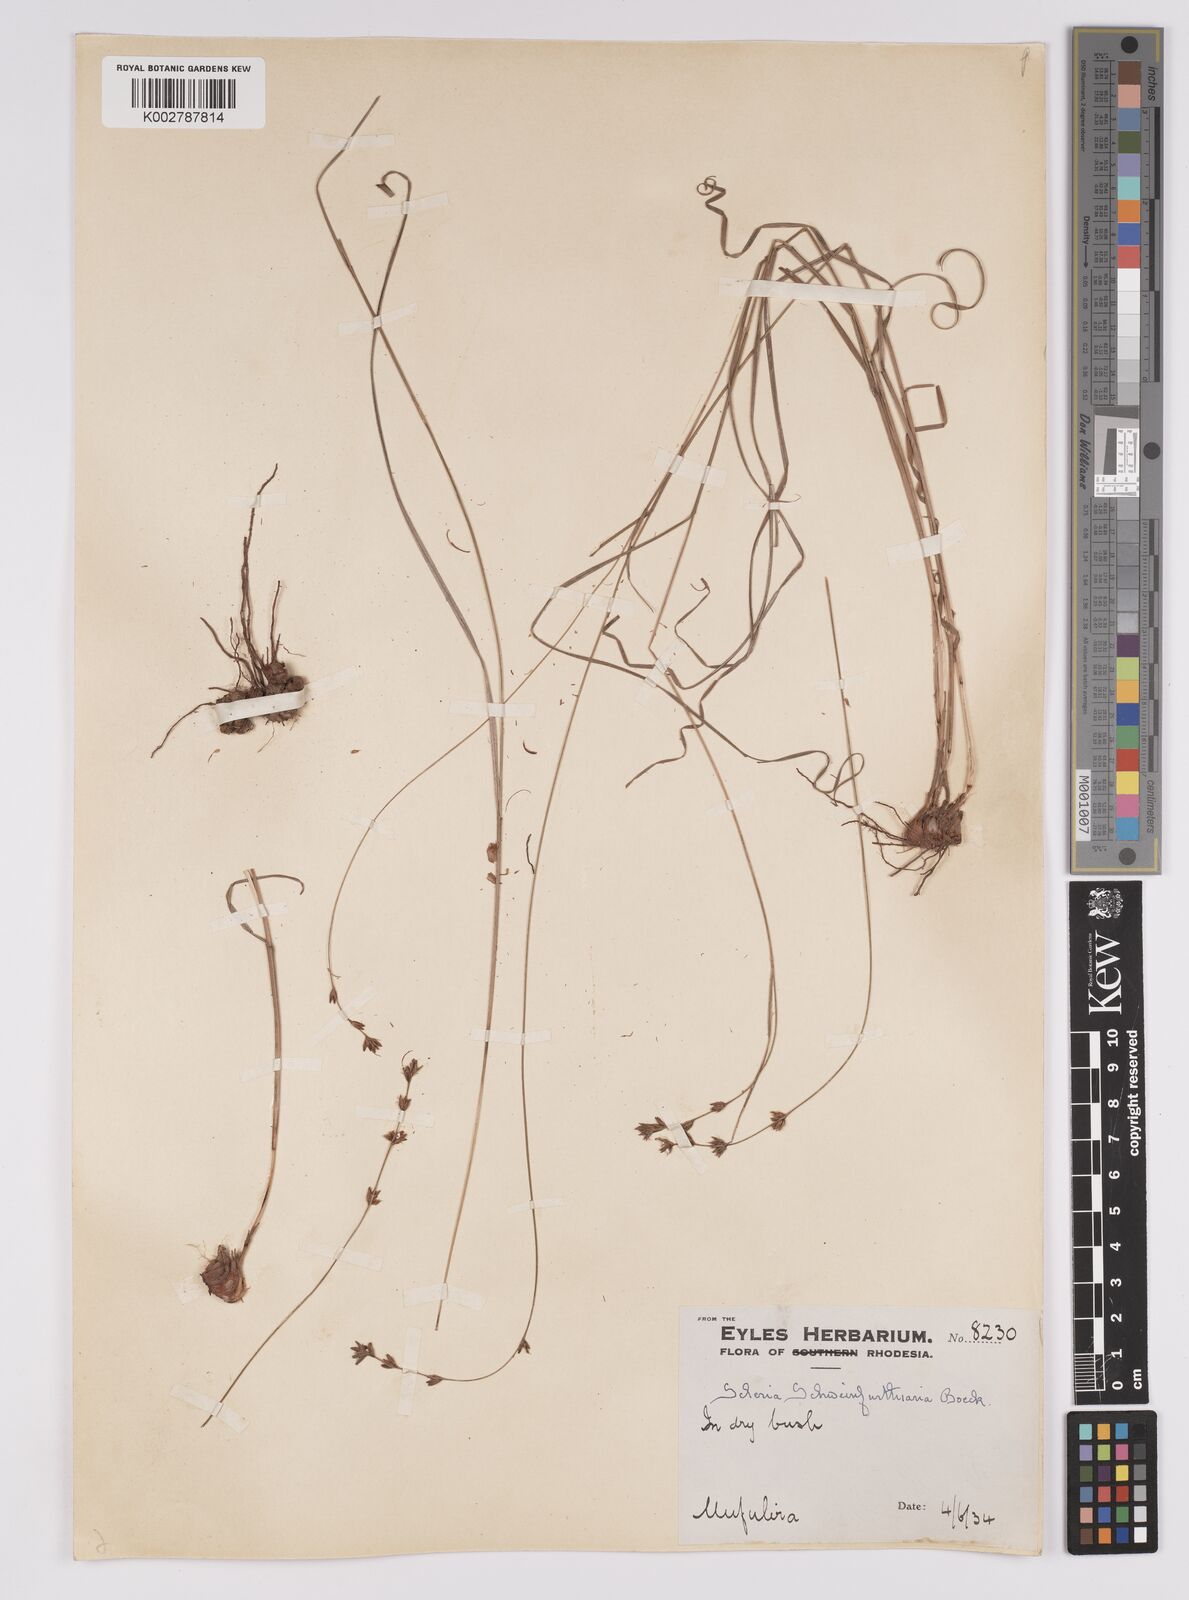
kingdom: Plantae
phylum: Tracheophyta
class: Liliopsida
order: Poales
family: Cyperaceae
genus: Scleria
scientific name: Scleria bulbifera
